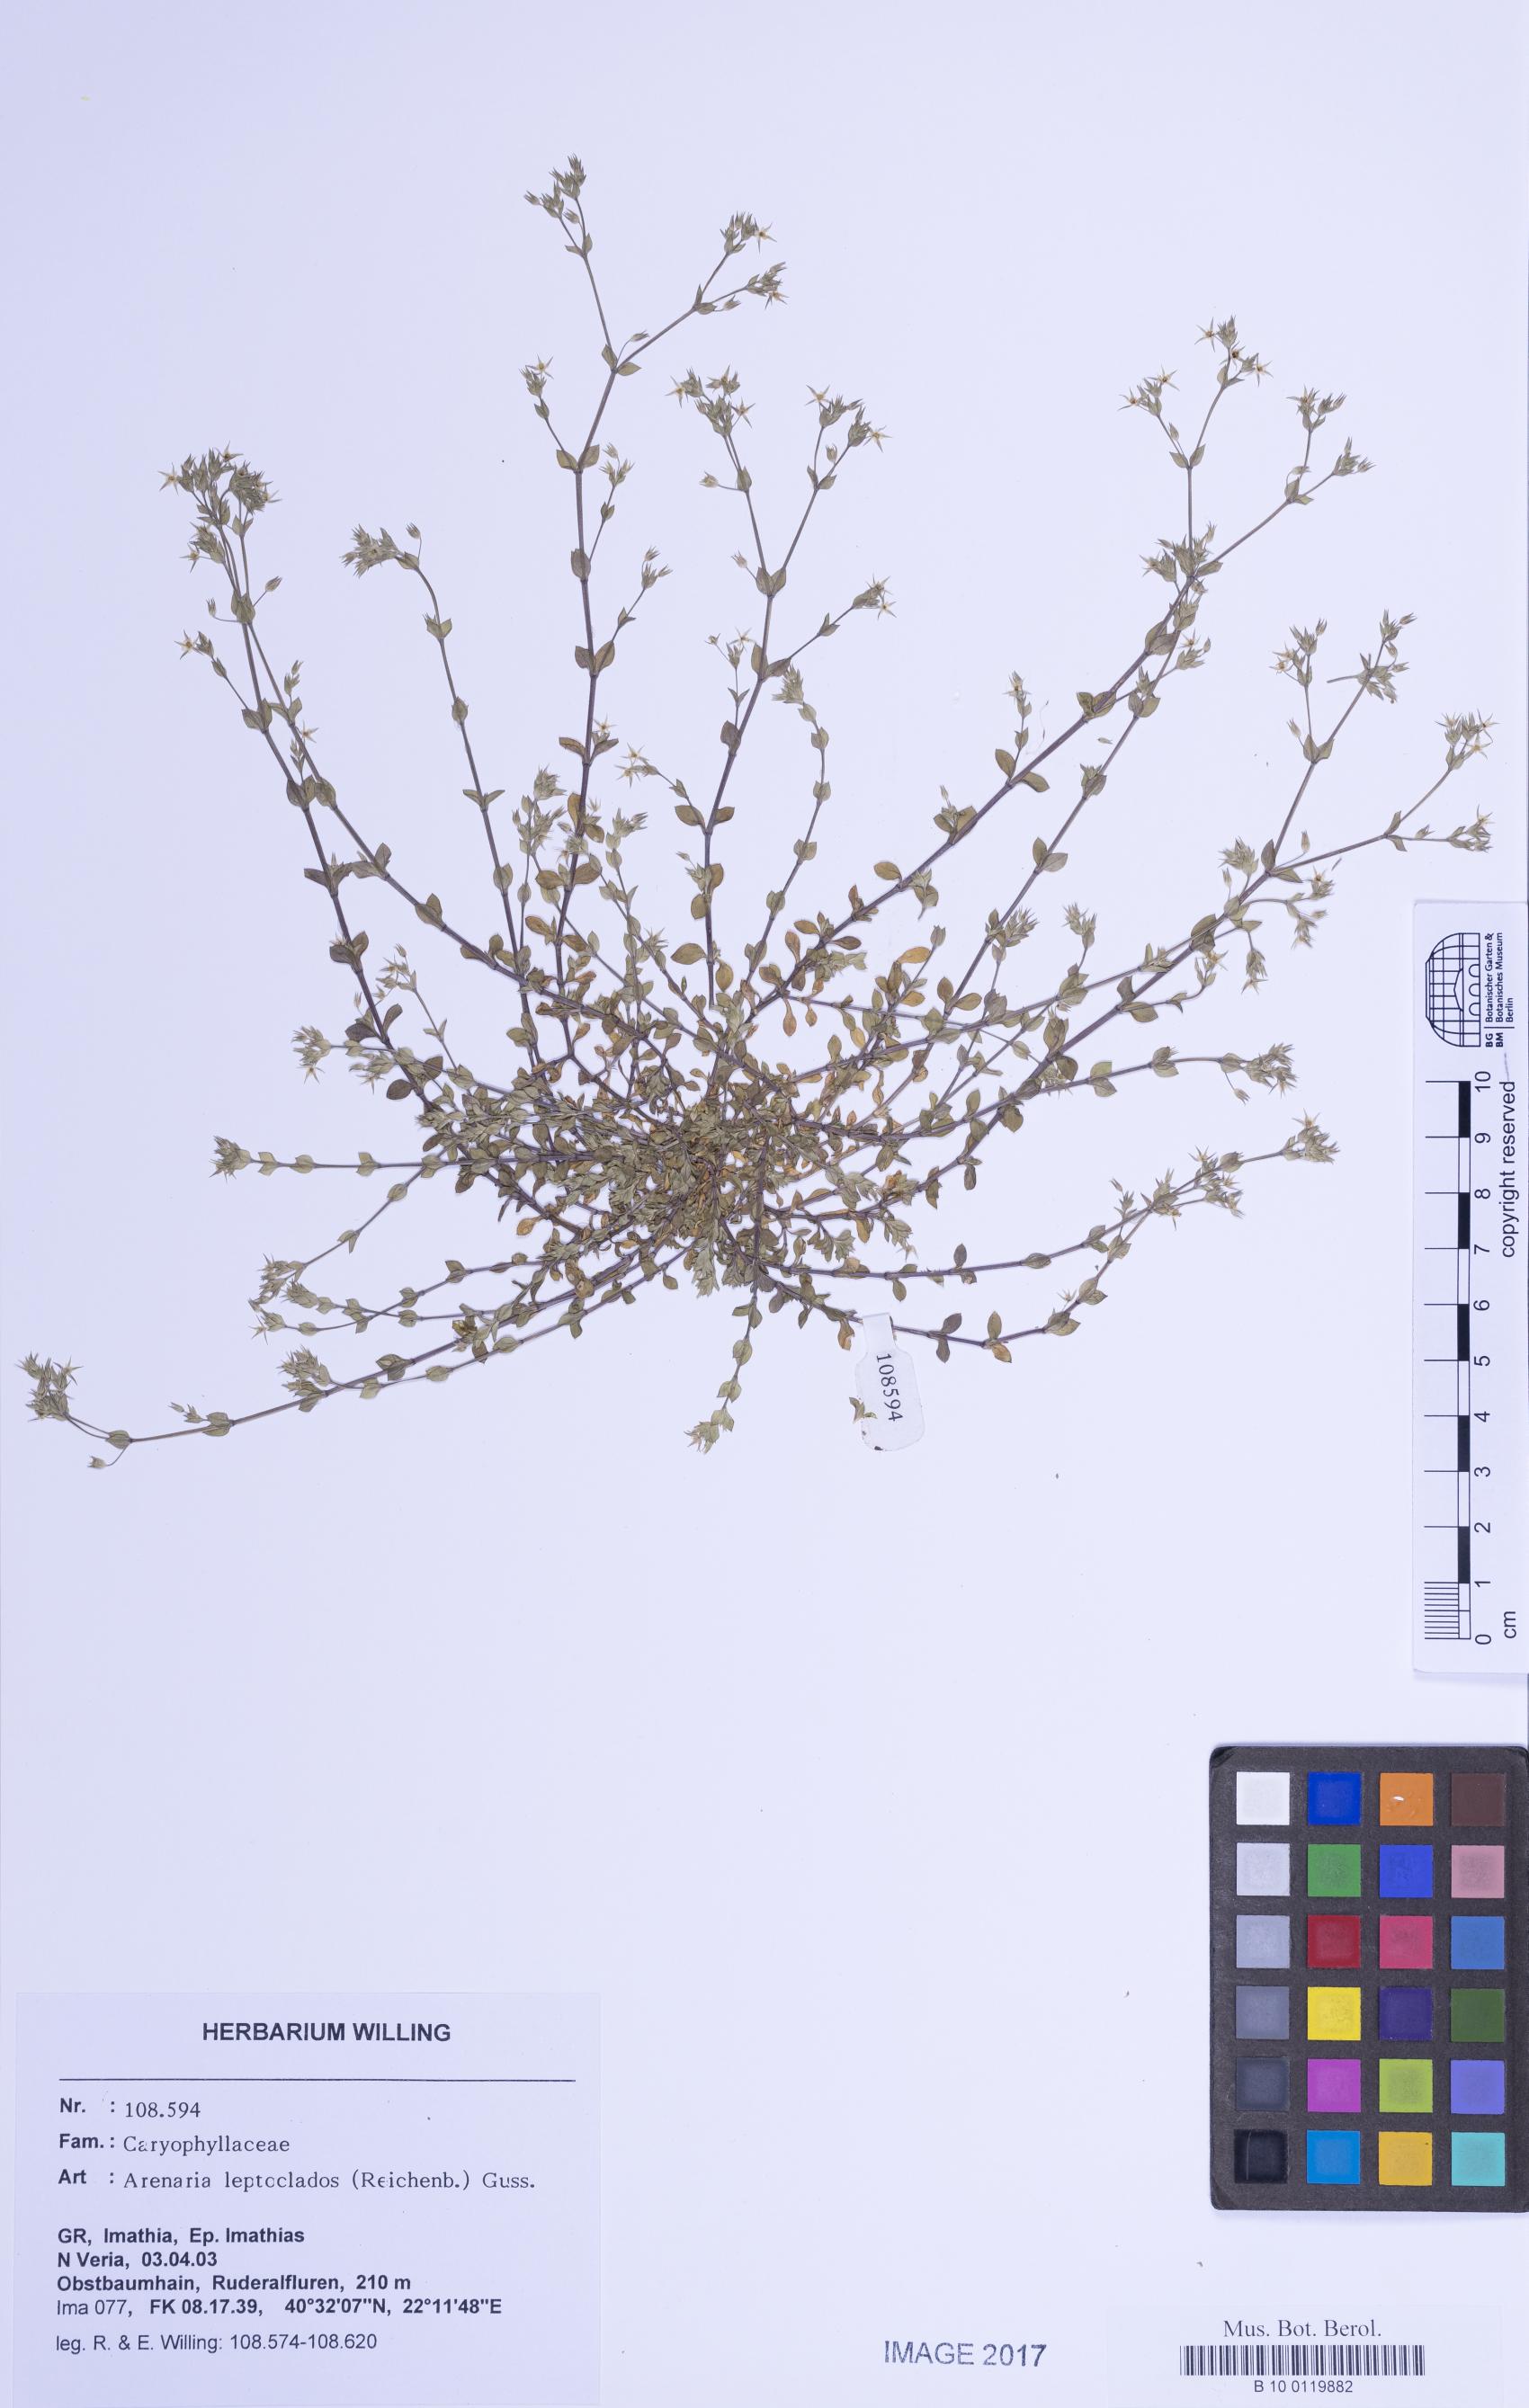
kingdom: Plantae
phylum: Tracheophyta
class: Magnoliopsida
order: Caryophyllales
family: Caryophyllaceae
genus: Arenaria
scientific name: Arenaria leptoclados
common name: Thyme-leaved sandwort
